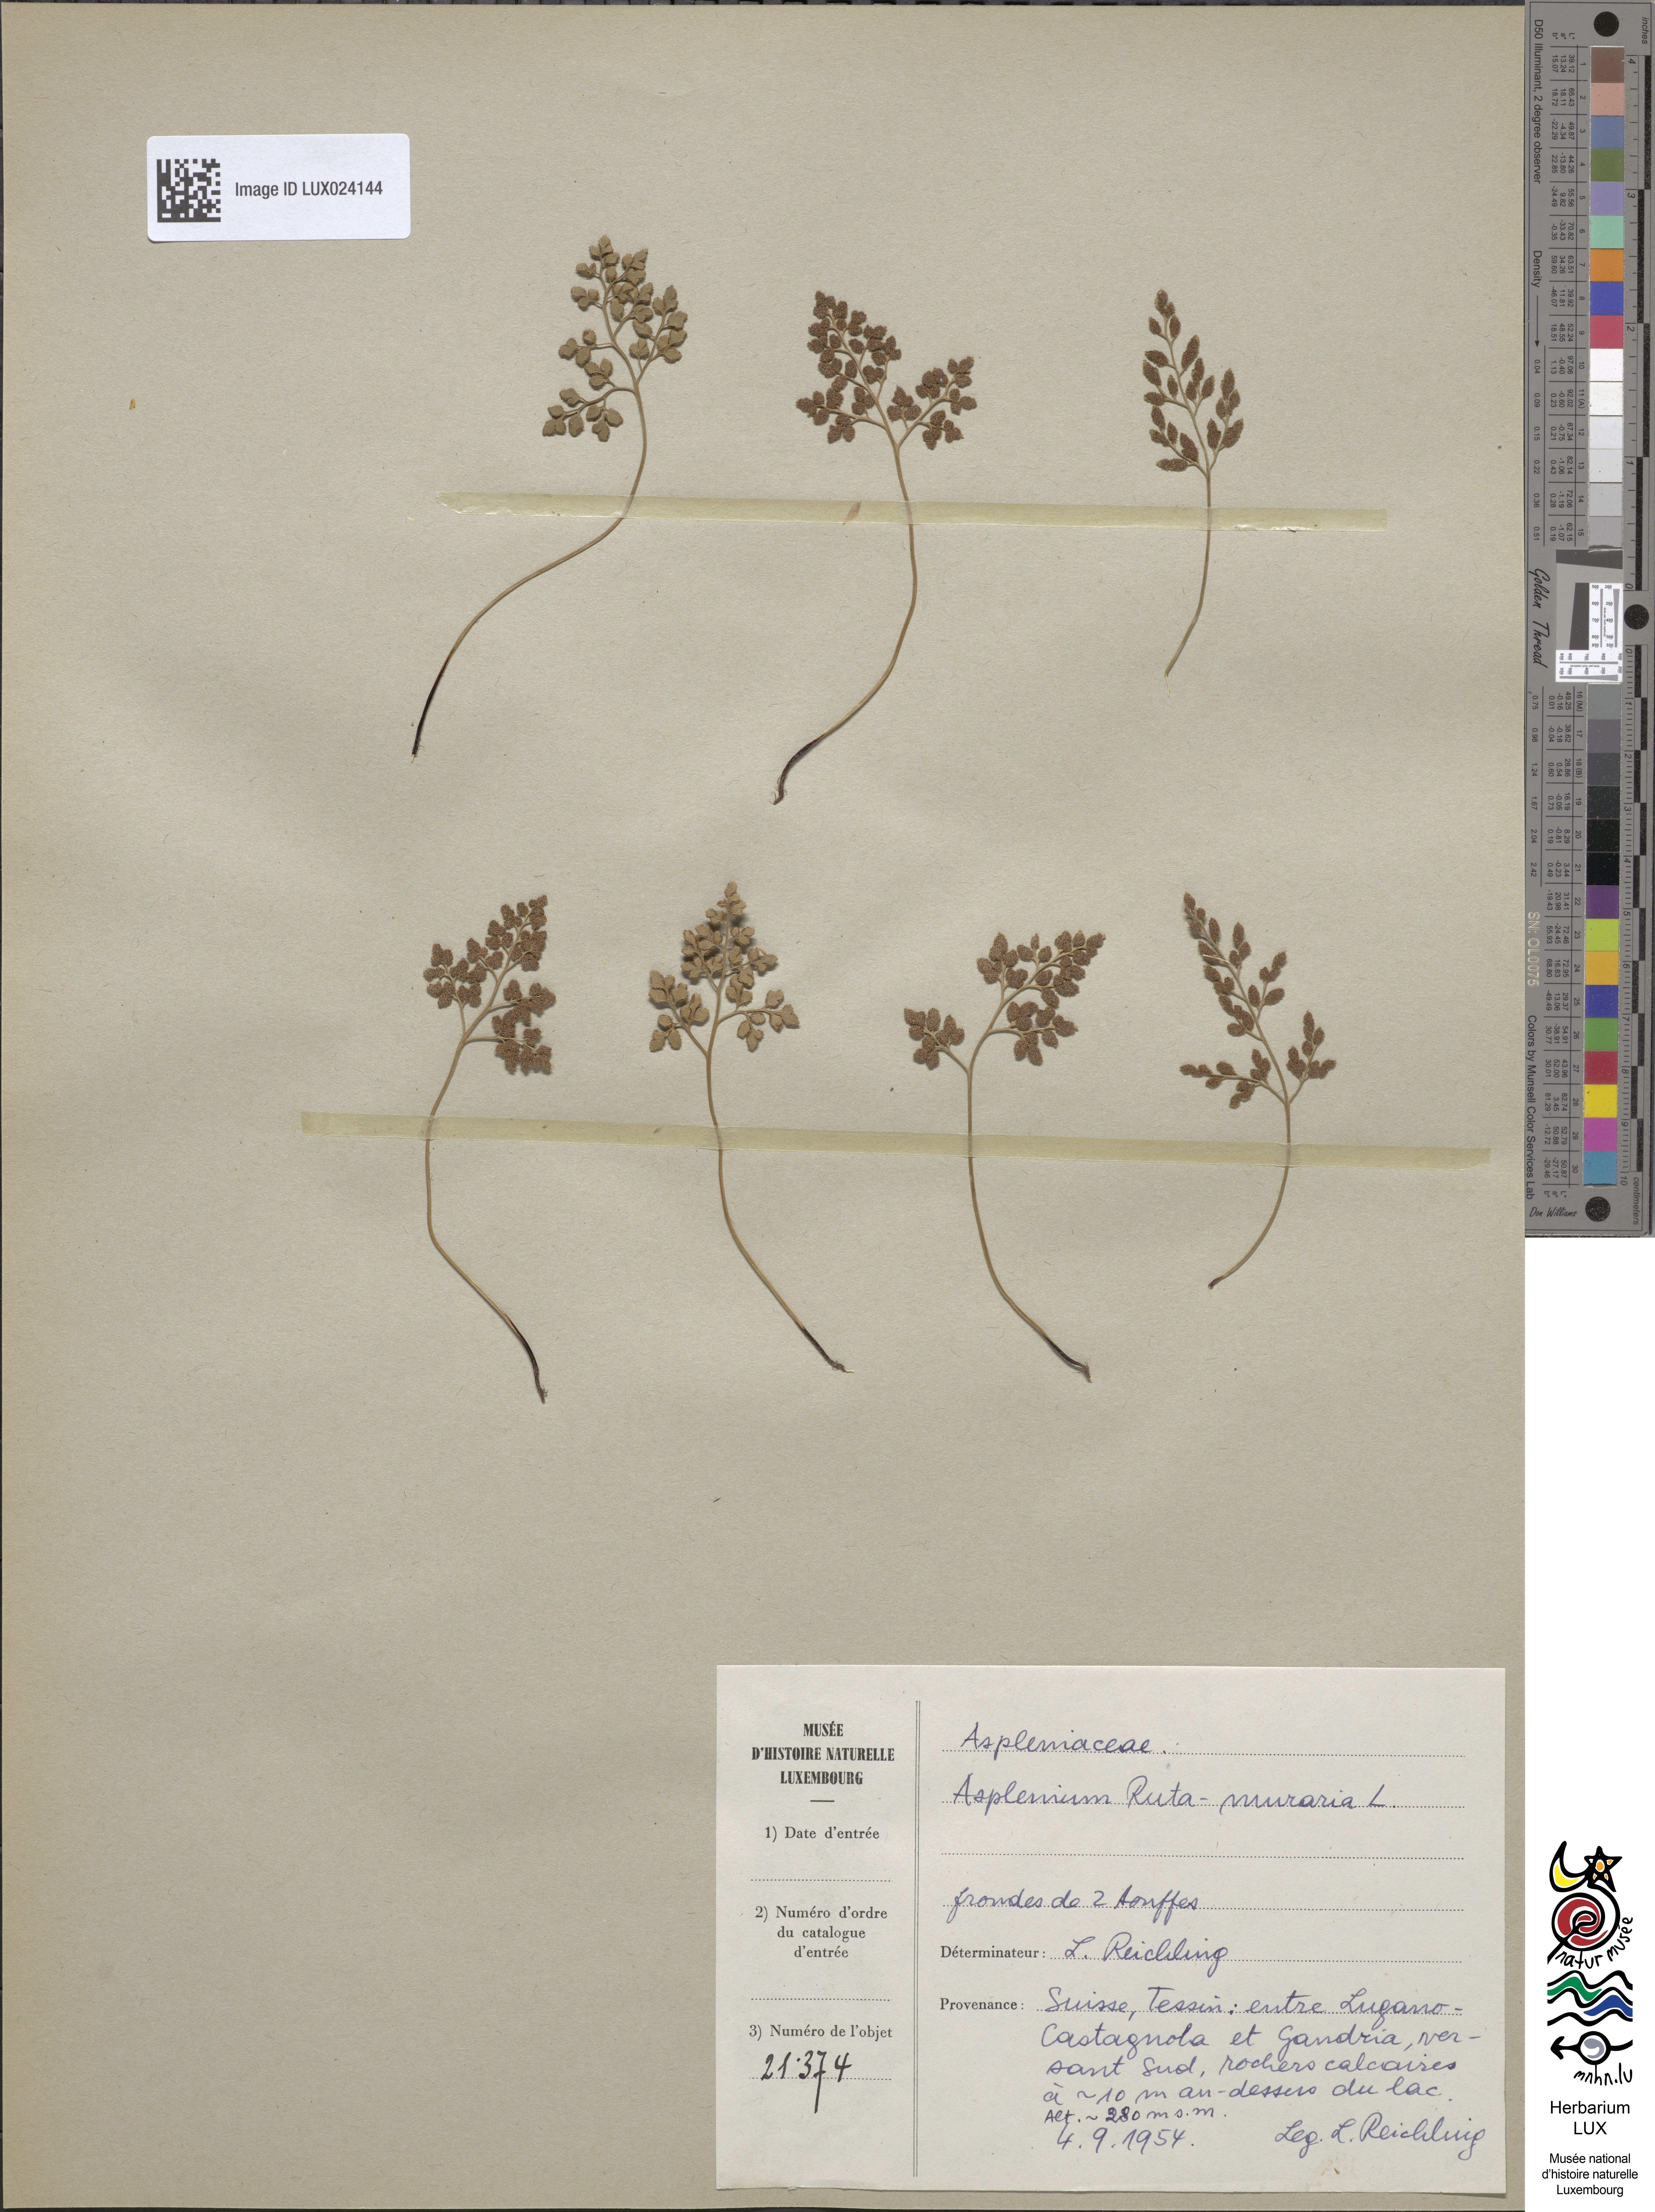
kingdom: Plantae
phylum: Tracheophyta
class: Polypodiopsida
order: Polypodiales
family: Aspleniaceae
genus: Asplenium
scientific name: Asplenium ruta-muraria
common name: Wall-rue
